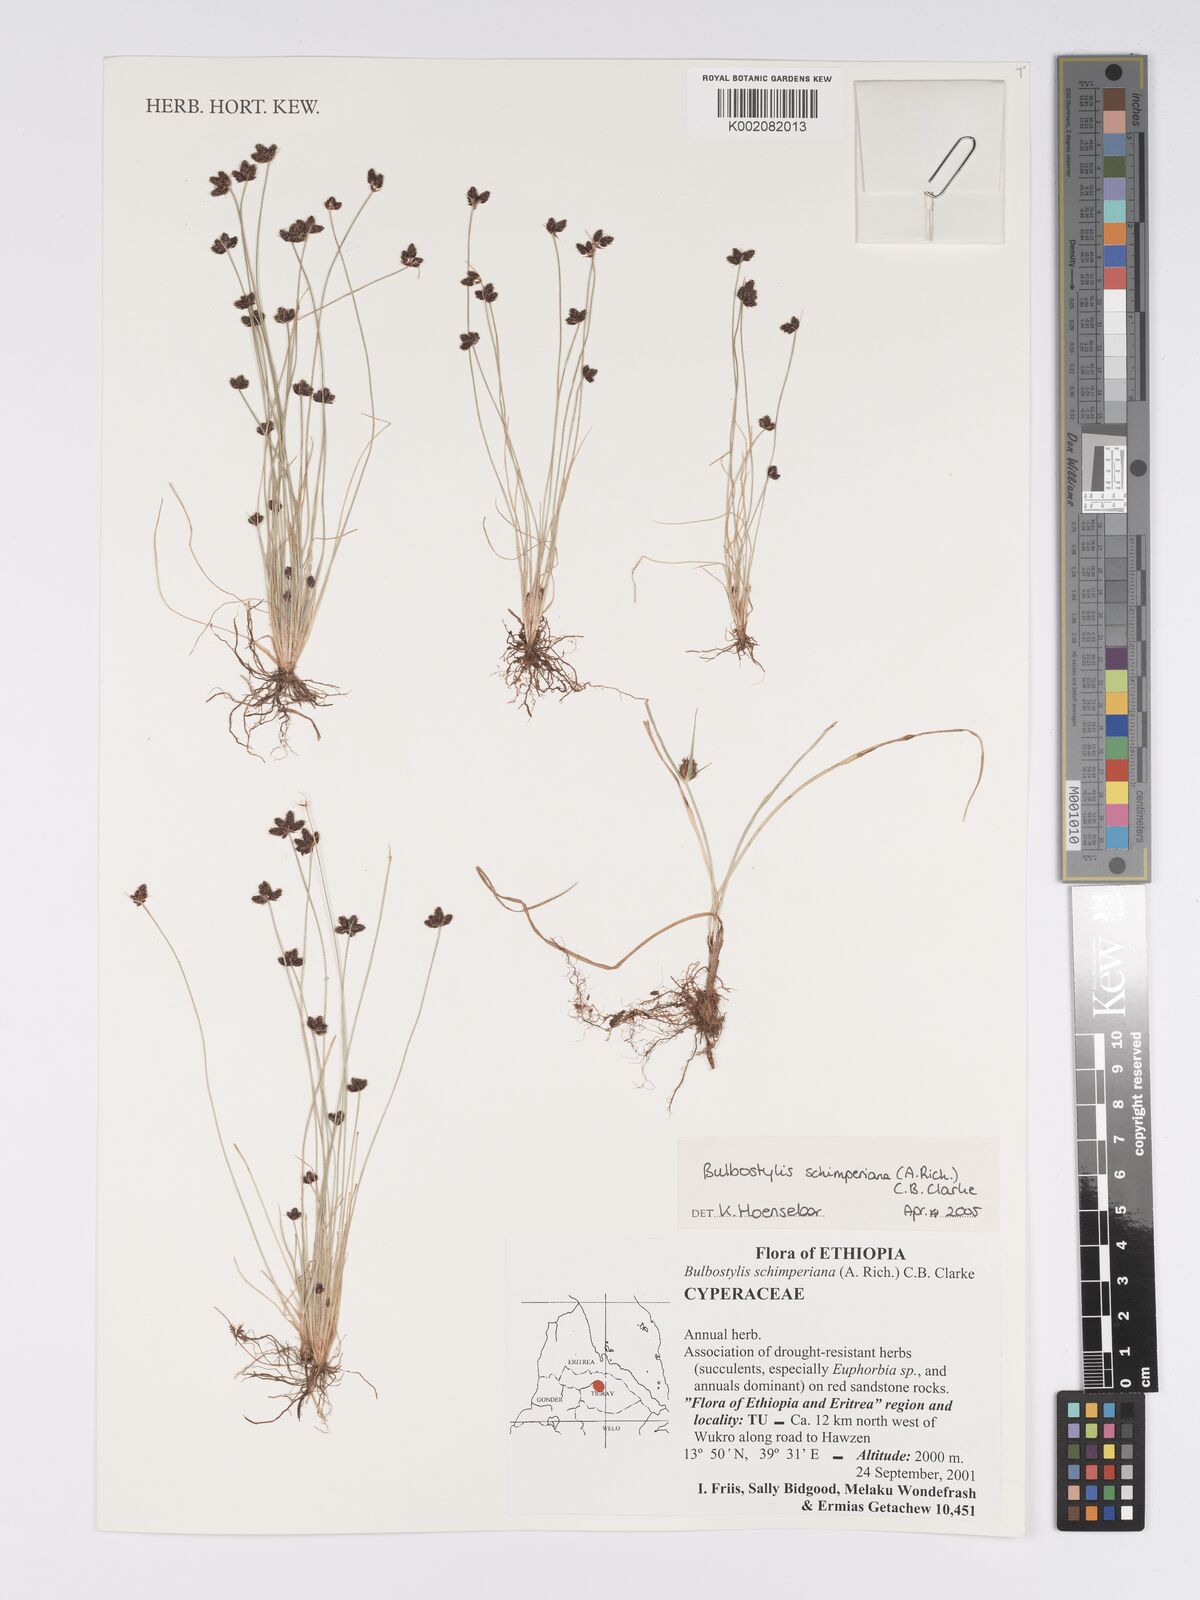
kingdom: Plantae
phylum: Tracheophyta
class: Liliopsida
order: Poales
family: Cyperaceae
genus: Bulbostylis
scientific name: Bulbostylis schimperiana
